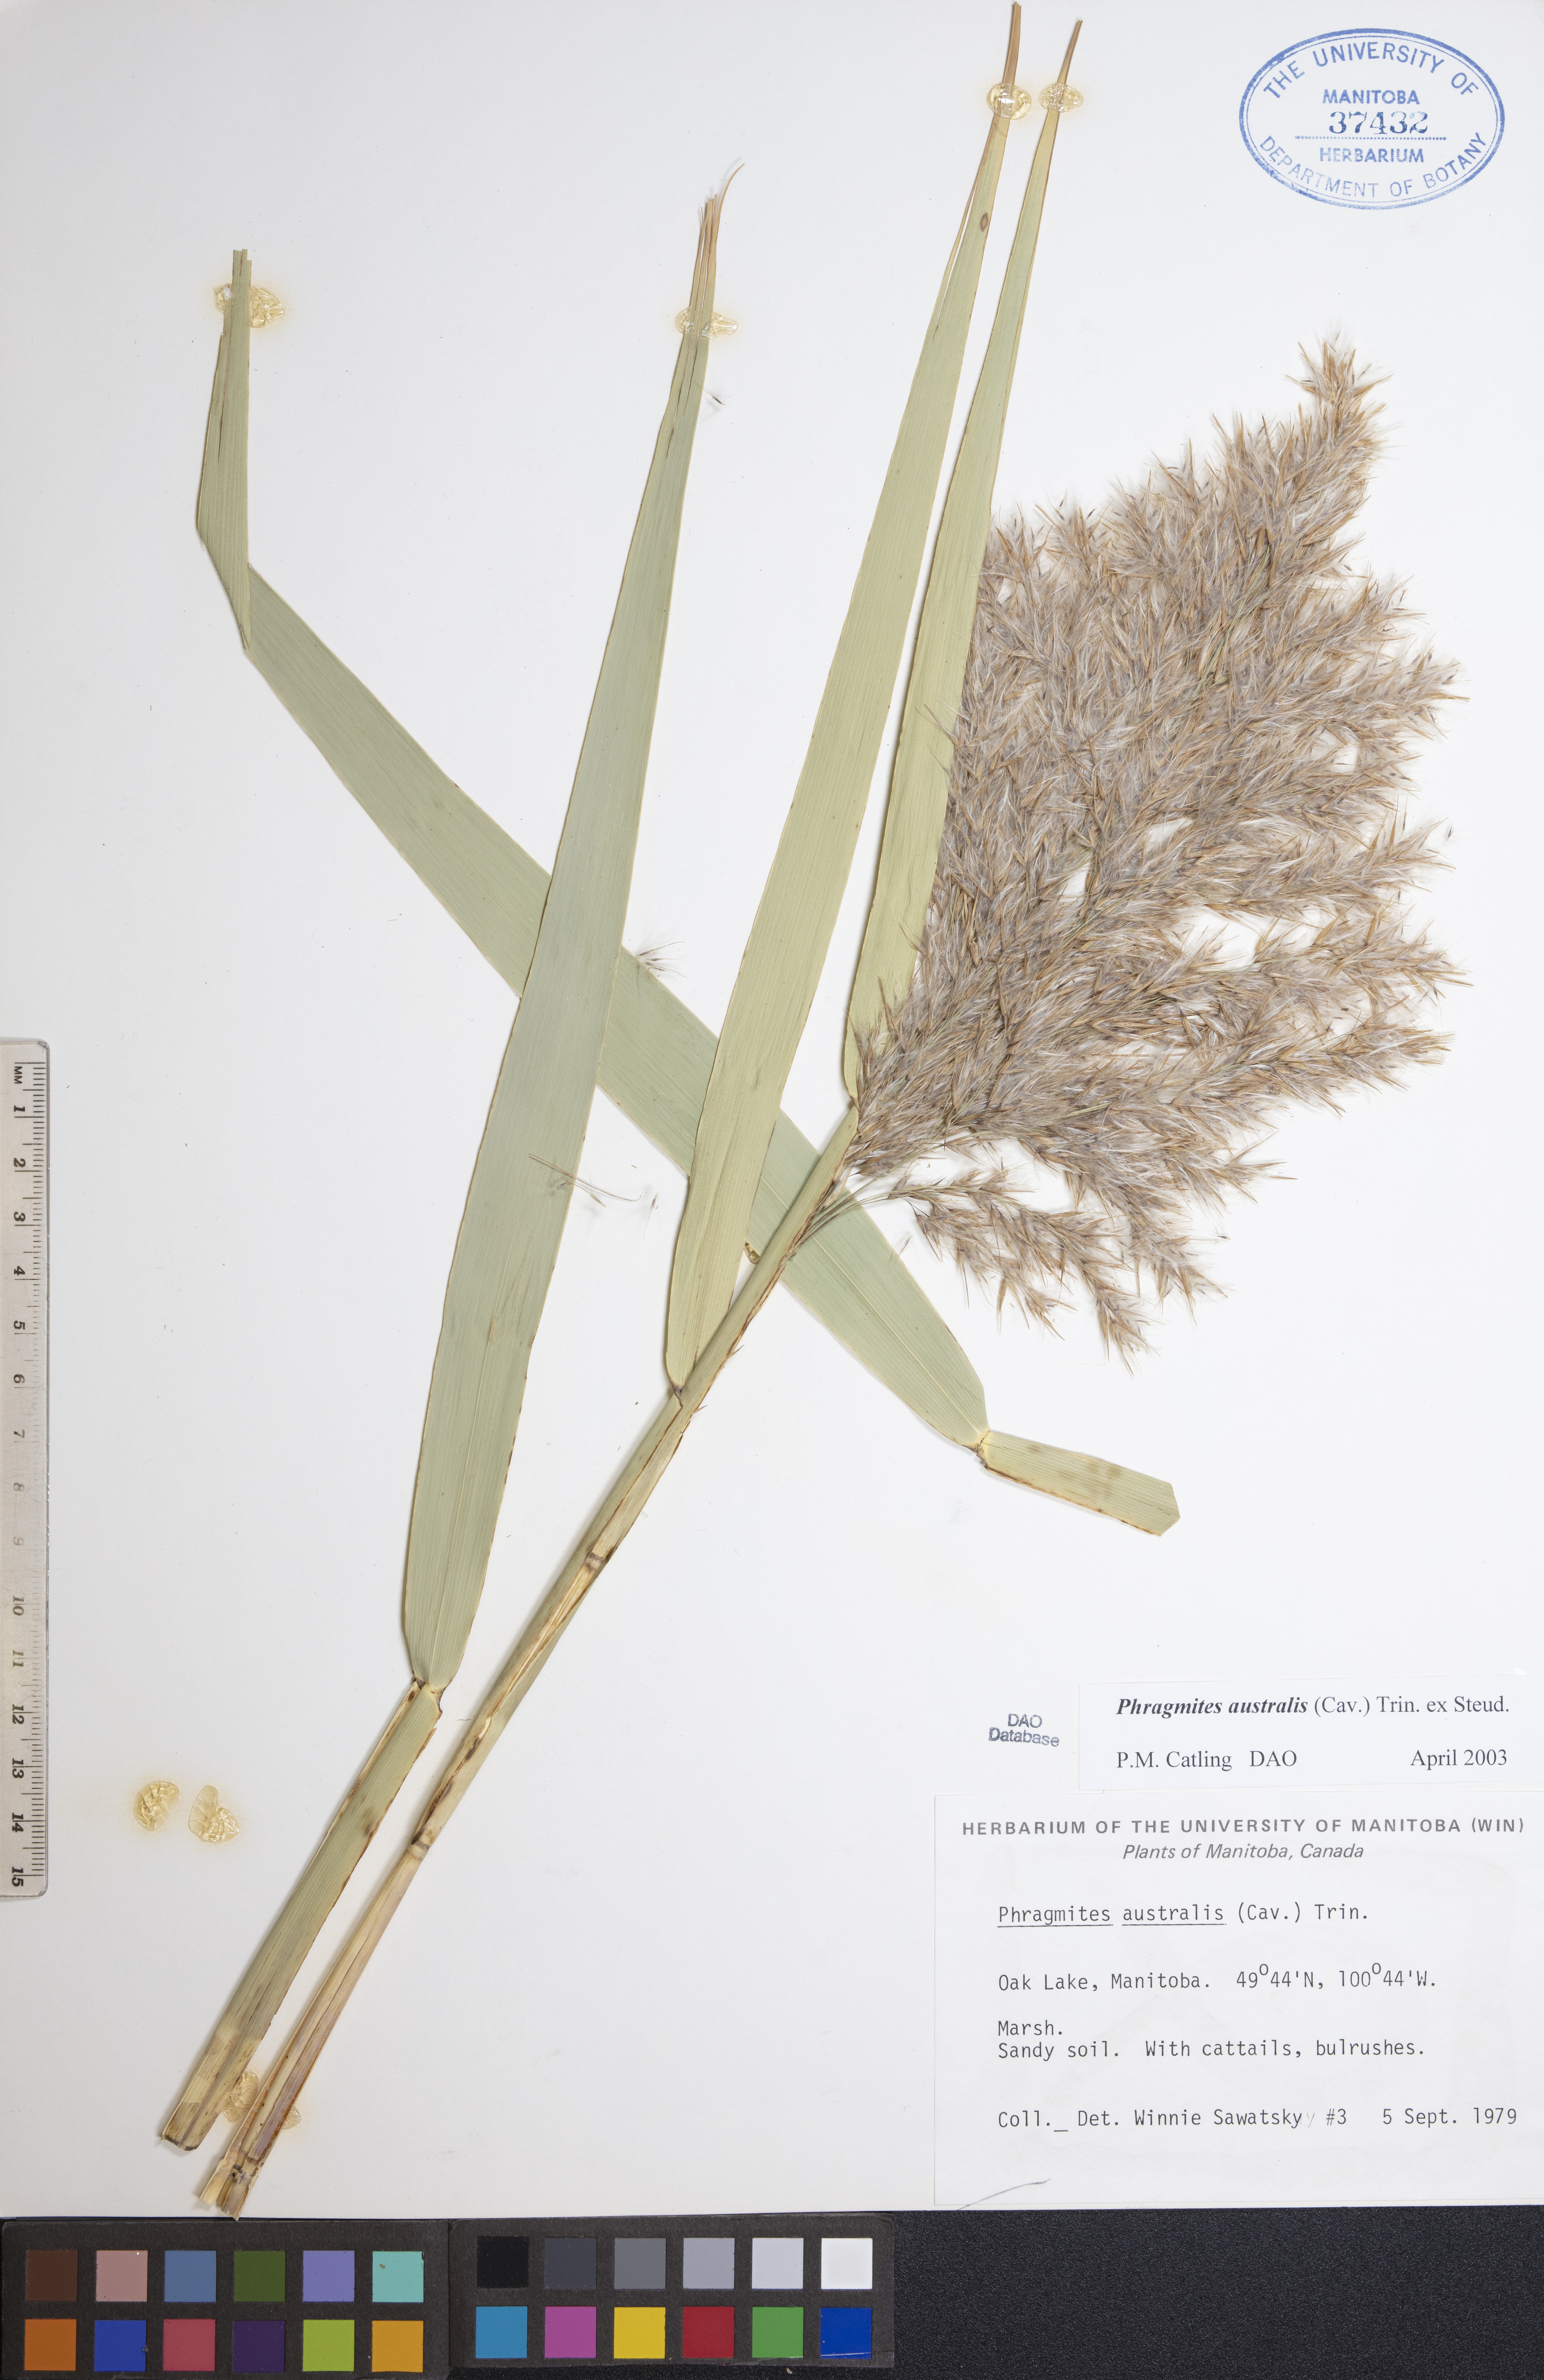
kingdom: Plantae
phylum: Tracheophyta
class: Liliopsida
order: Poales
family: Poaceae
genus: Phragmites
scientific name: Phragmites australis
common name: Common reed
